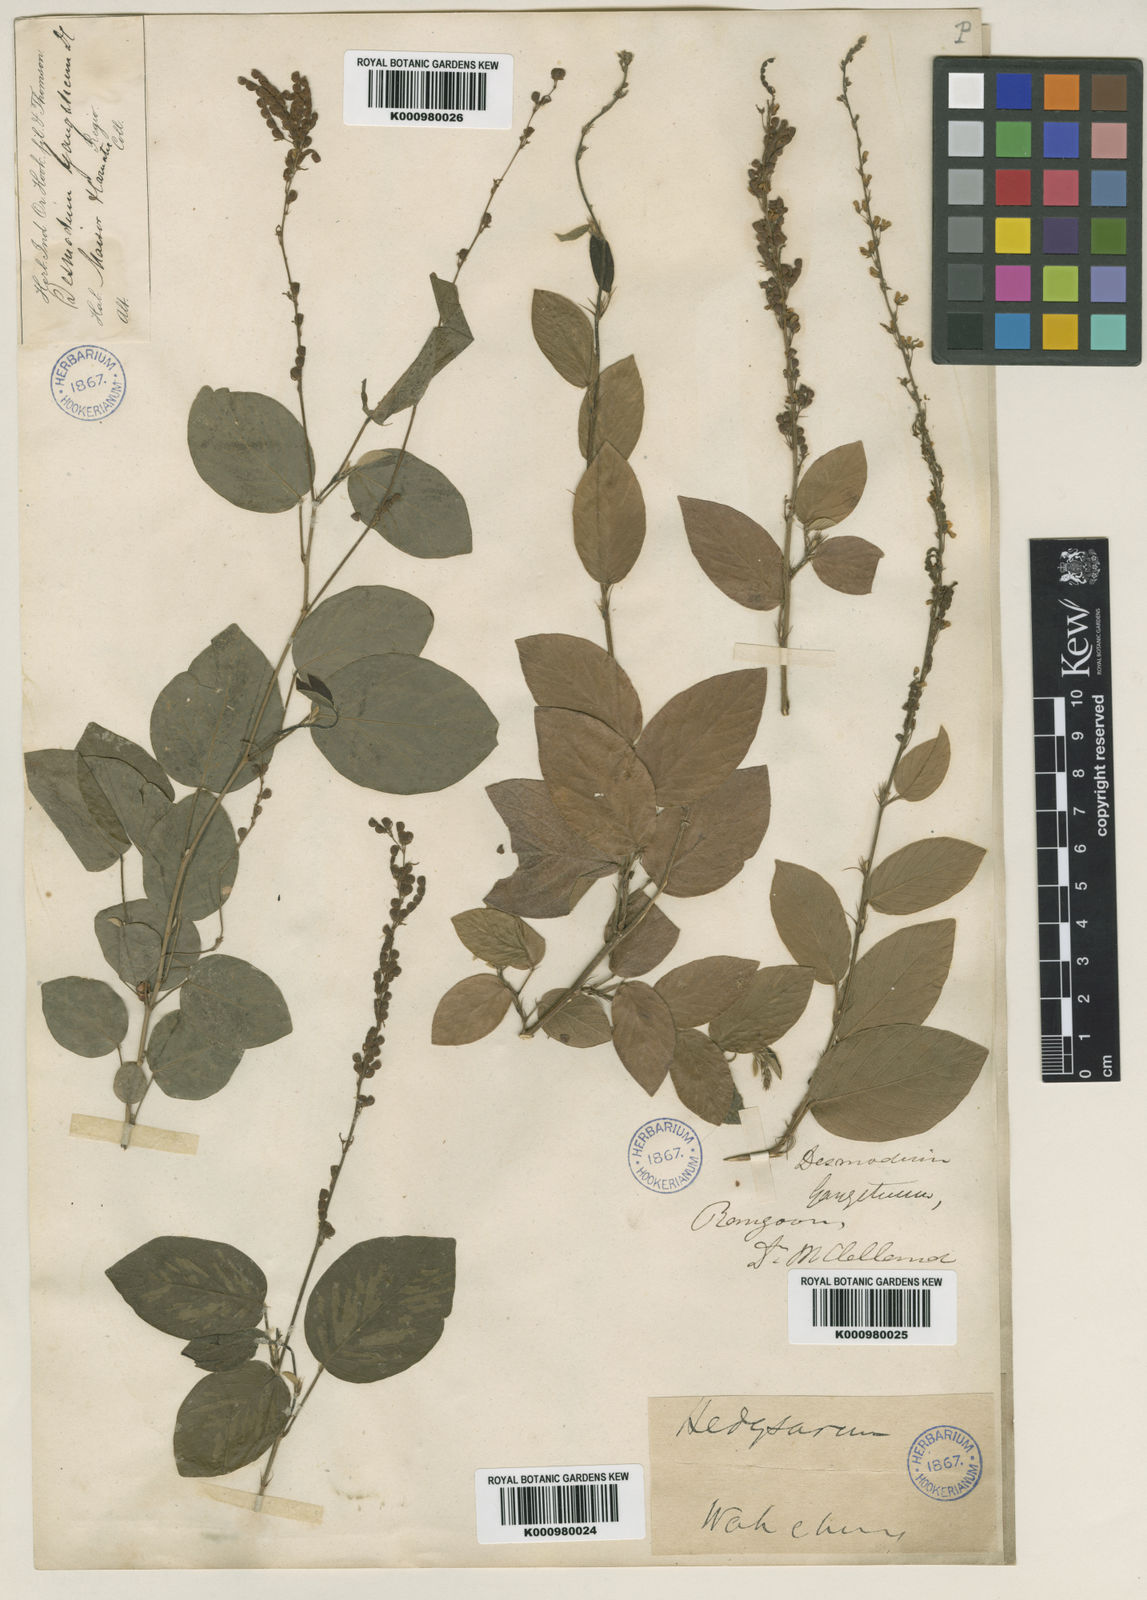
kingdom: Plantae
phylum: Tracheophyta
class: Magnoliopsida
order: Fabales
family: Fabaceae
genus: Pleurolobus
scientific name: Pleurolobus gangeticus
